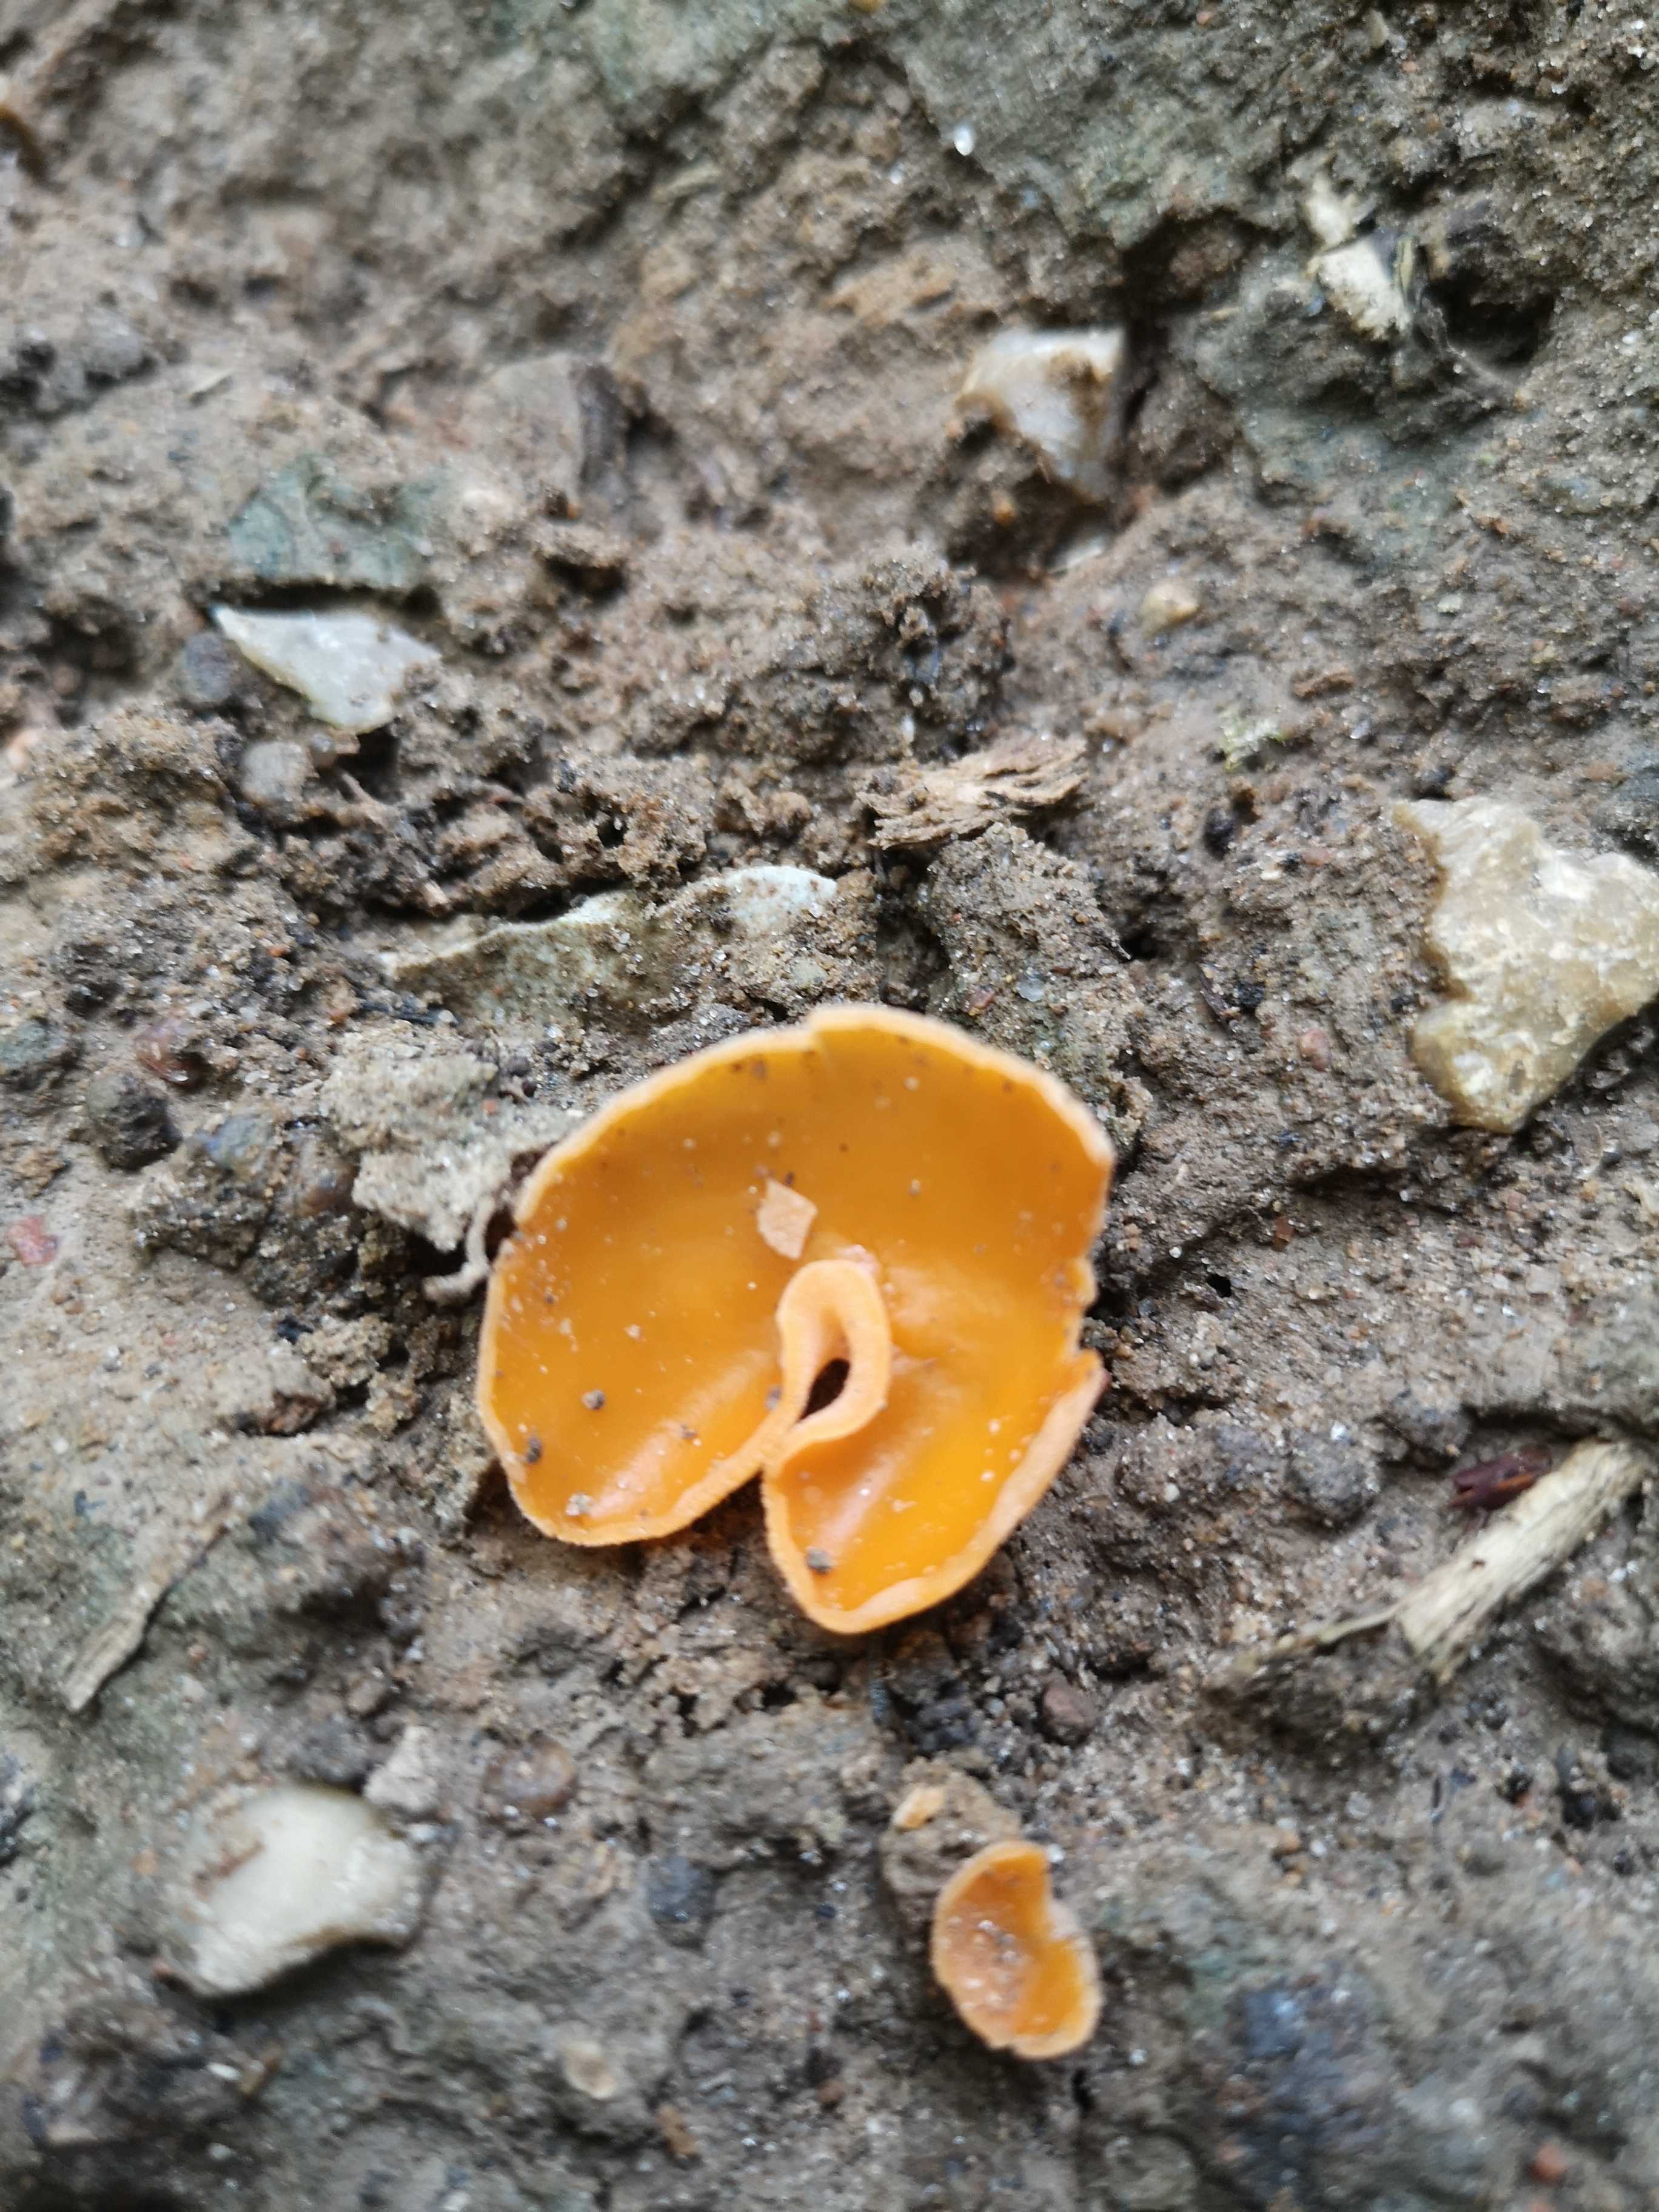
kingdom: Fungi
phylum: Ascomycota
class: Pezizomycetes
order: Pezizales
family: Pyronemataceae
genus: Aleuria
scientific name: Aleuria aurantia
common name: almindelig orangebæger
